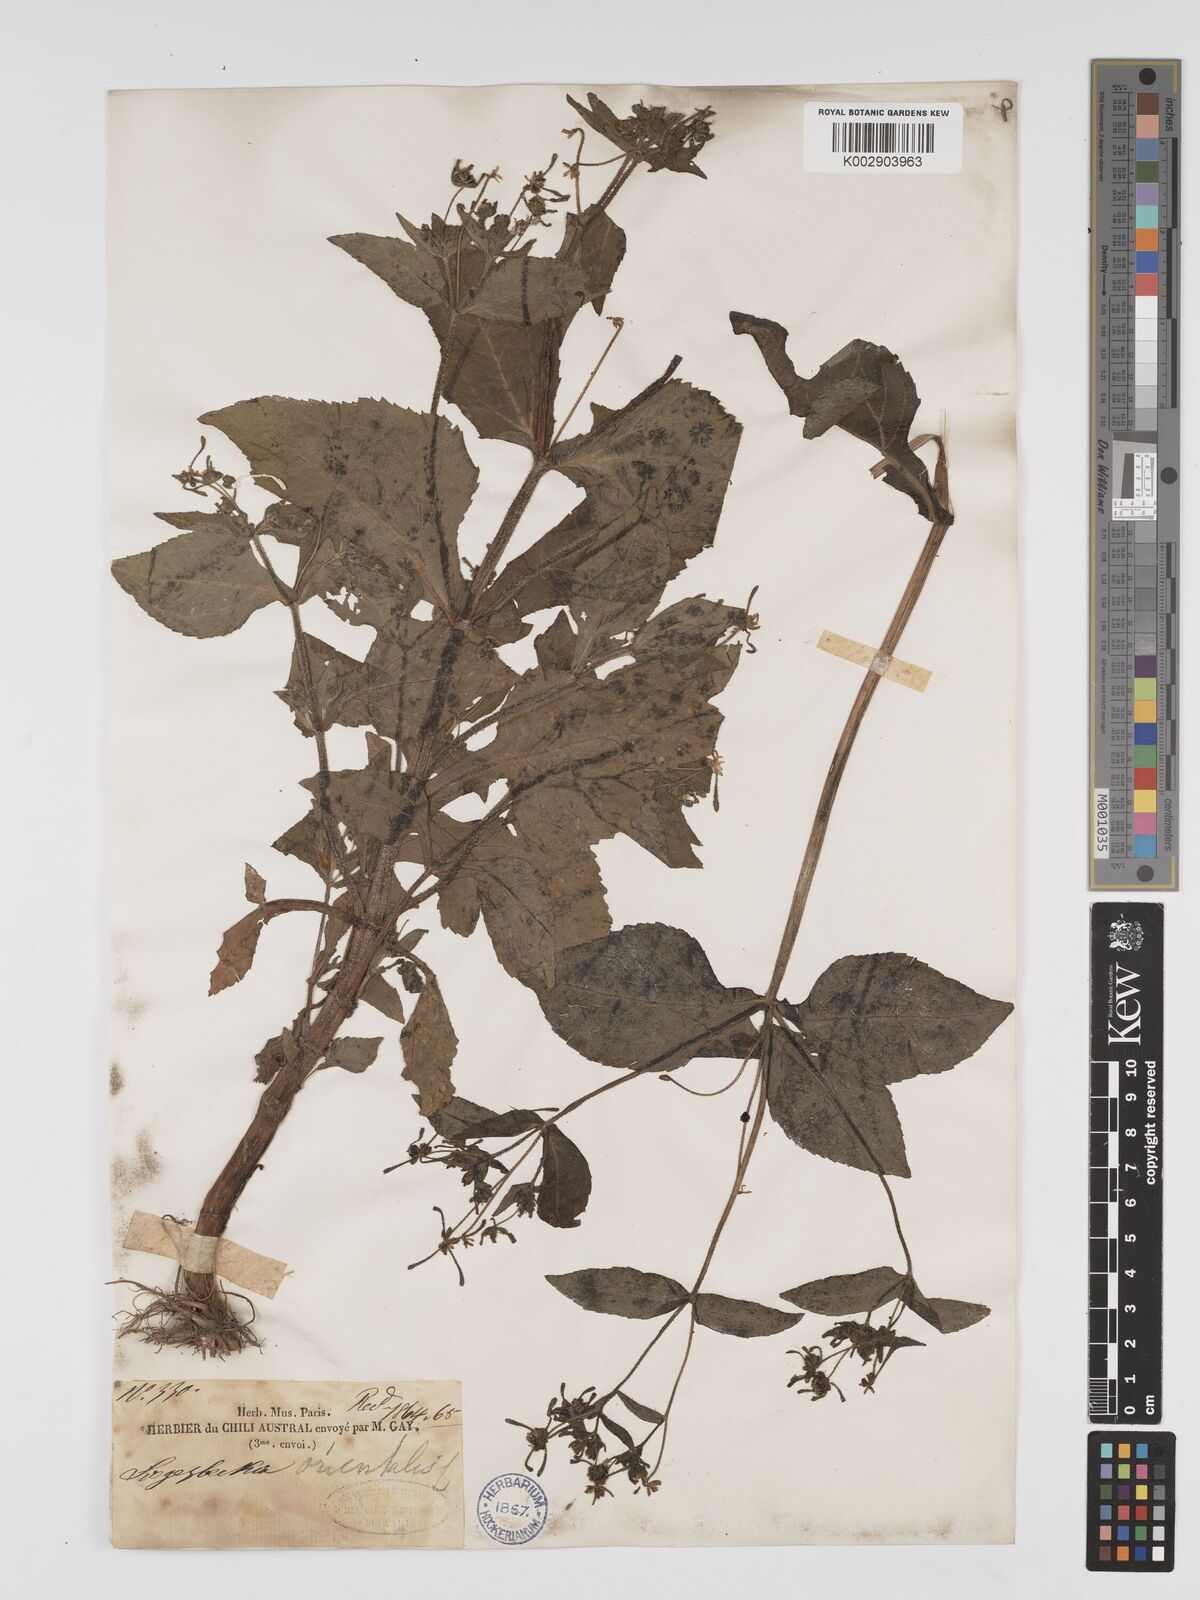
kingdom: Plantae
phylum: Tracheophyta
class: Magnoliopsida
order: Asterales
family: Asteraceae
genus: Sigesbeckia
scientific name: Sigesbeckia orientalis
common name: Eastern st paul's-wort
